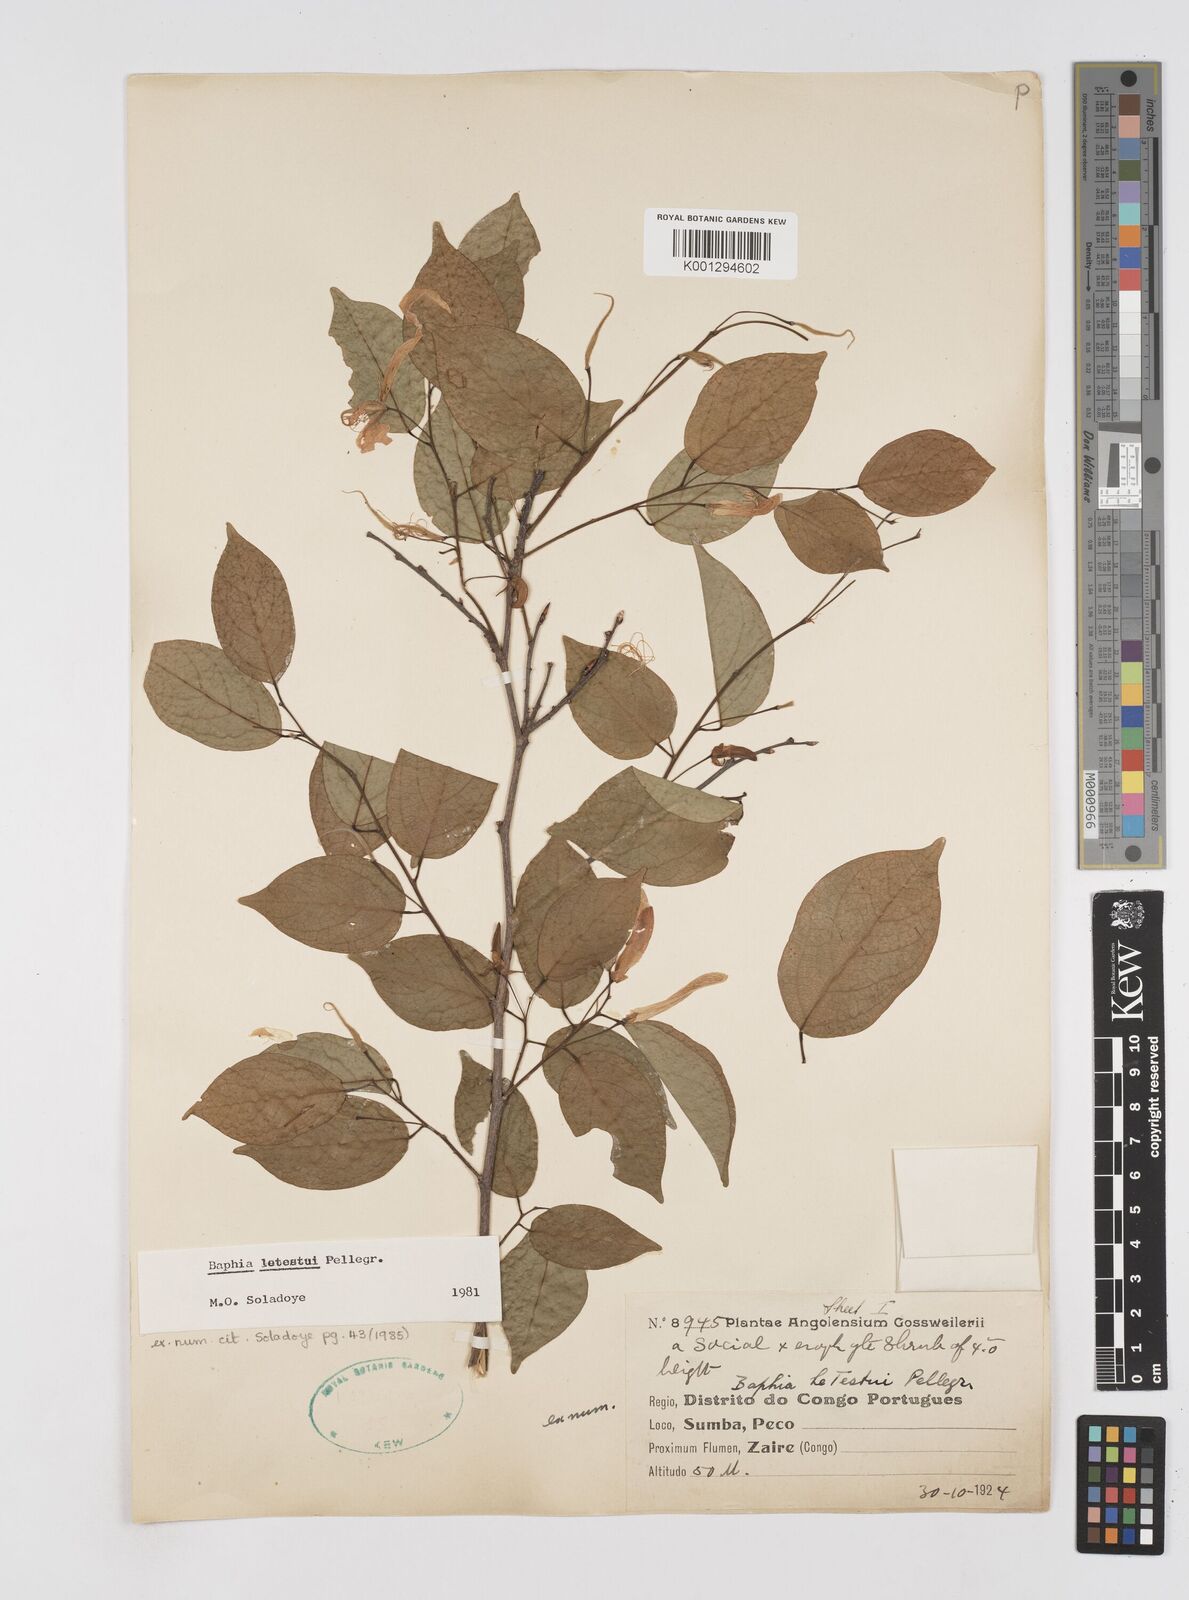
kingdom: Plantae
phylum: Tracheophyta
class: Magnoliopsida
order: Fabales
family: Fabaceae
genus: Baphia
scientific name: Baphia letestui
